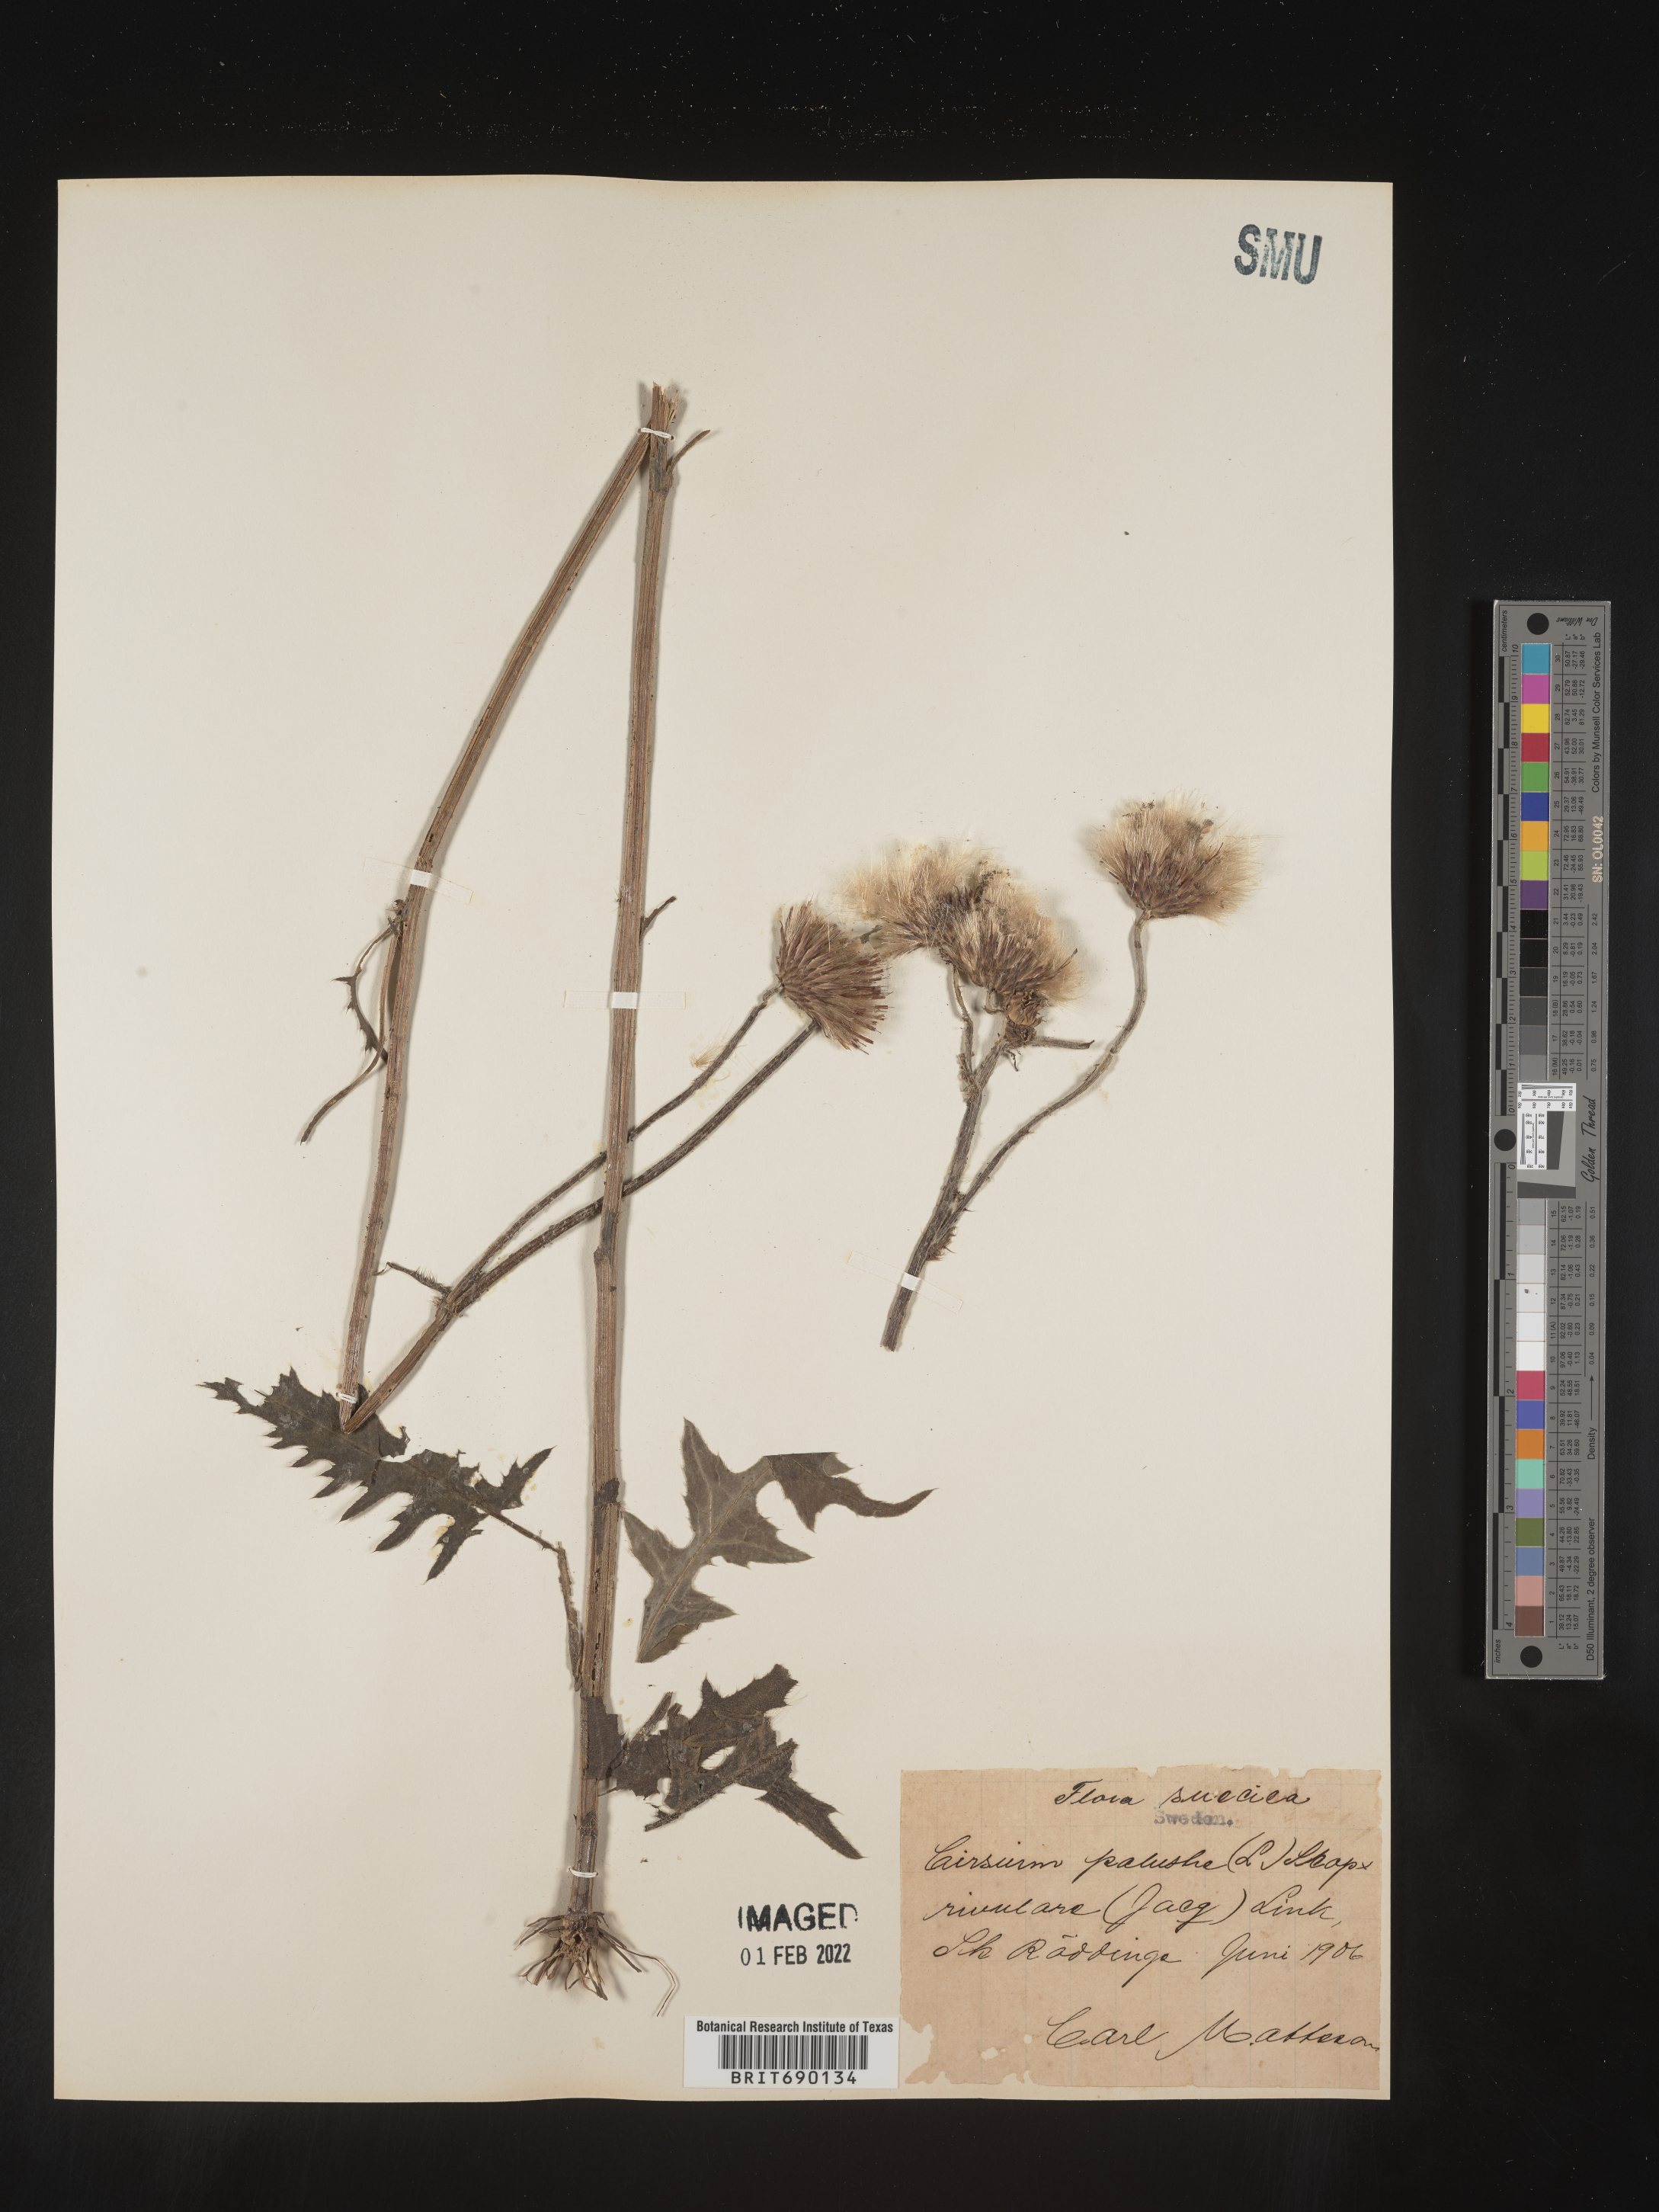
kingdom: Plantae
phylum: Tracheophyta
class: Magnoliopsida
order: Asterales
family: Asteraceae
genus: Cirsium
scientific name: Cirsium
